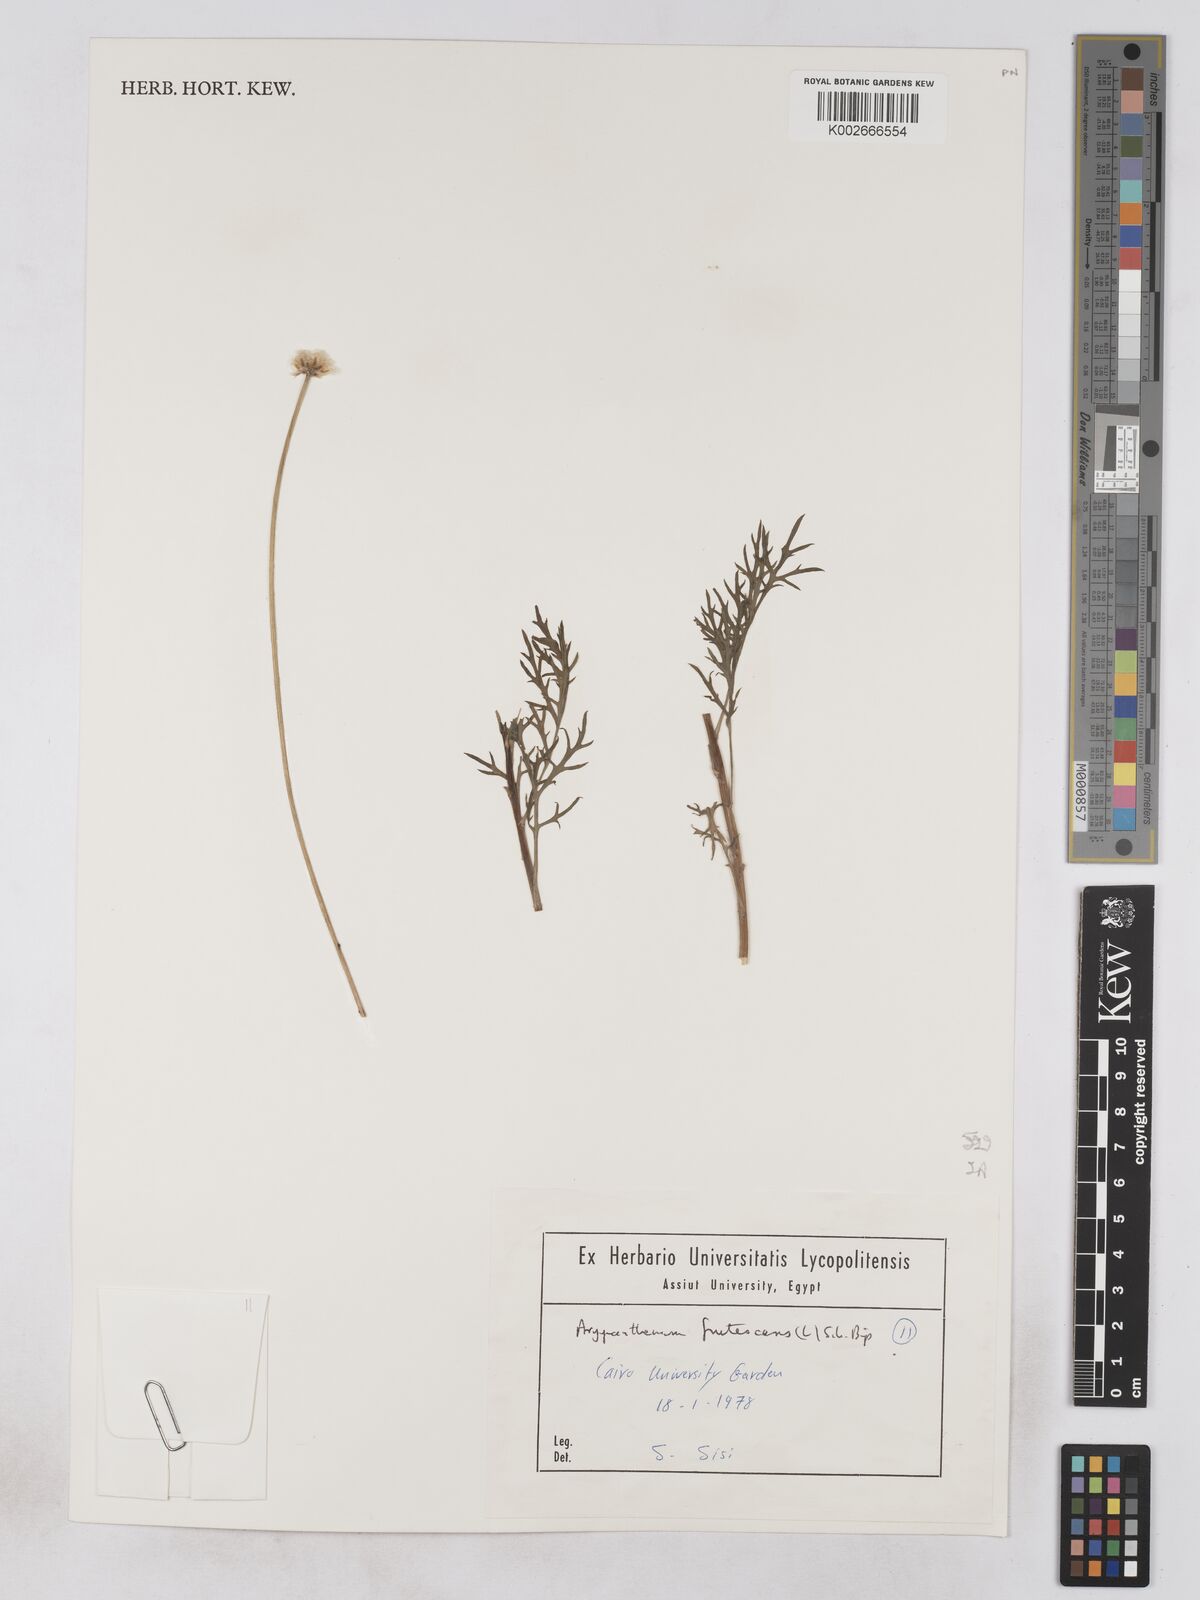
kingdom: Plantae
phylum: Tracheophyta
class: Magnoliopsida
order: Asterales
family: Asteraceae
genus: Argyranthemum
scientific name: Argyranthemum frutescens
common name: Paris daisy
